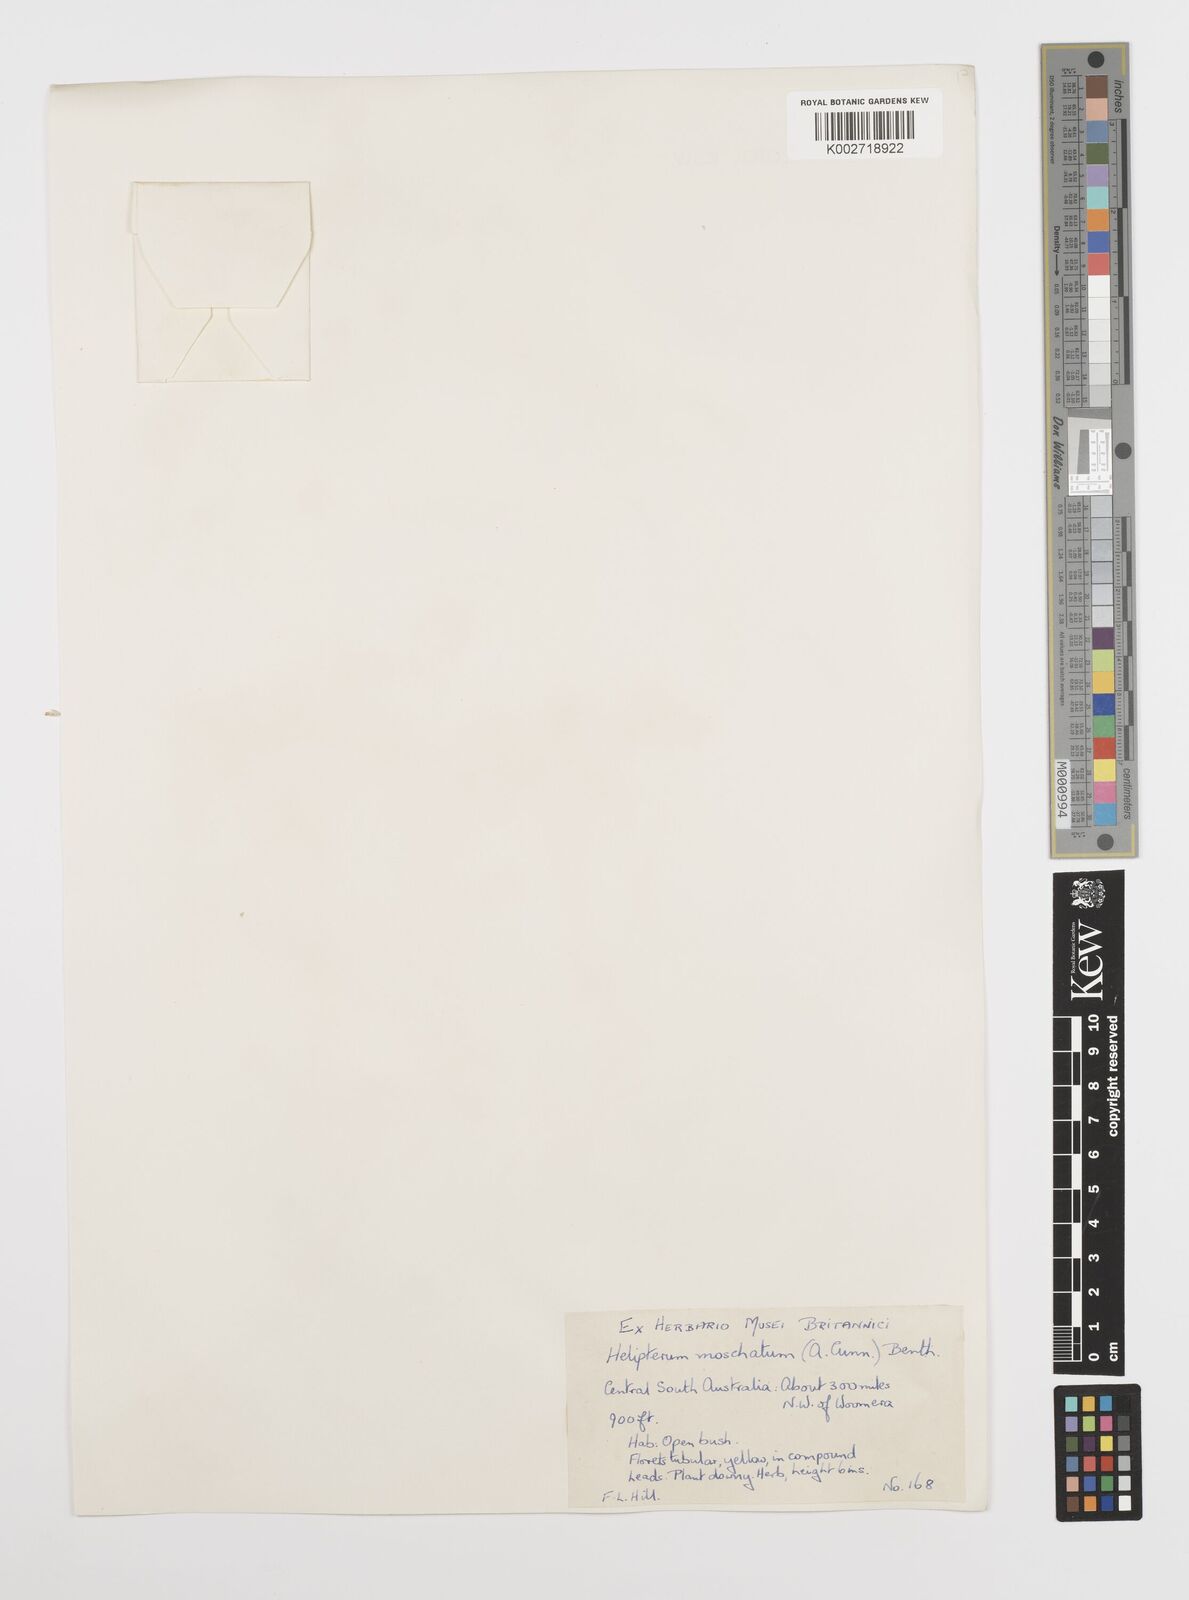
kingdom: Plantae
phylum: Tracheophyta
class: Magnoliopsida
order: Asterales
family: Asteraceae
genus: Rhodanthe
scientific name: Rhodanthe moschata
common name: Musk sunray
